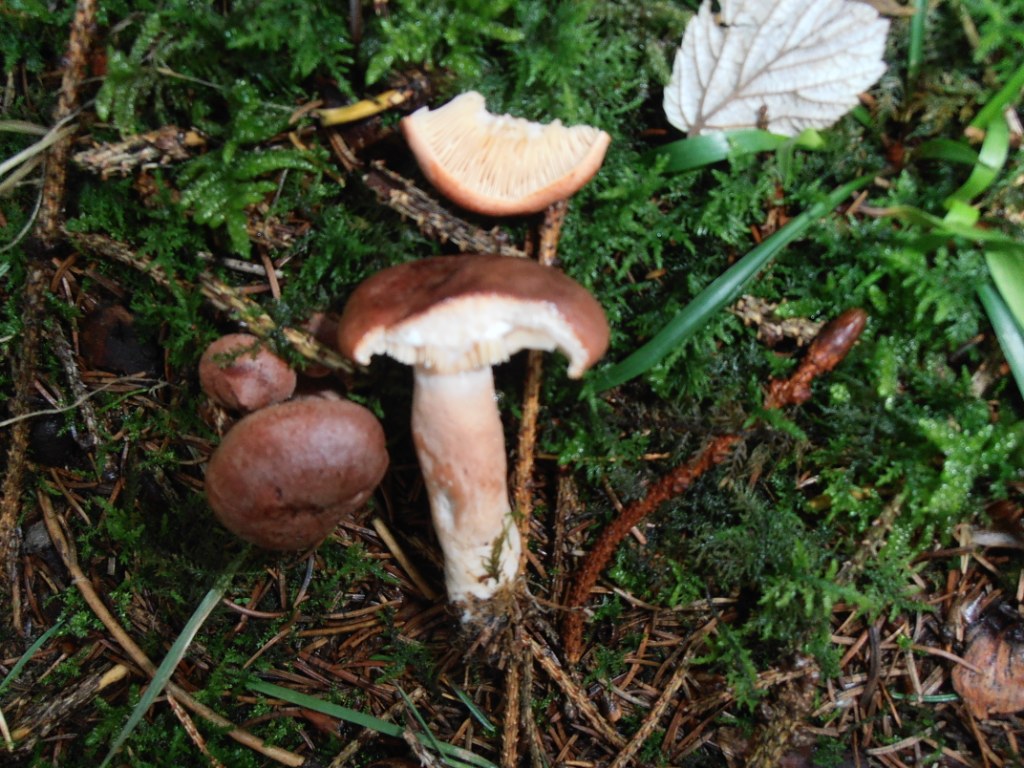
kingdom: Fungi
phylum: Basidiomycota
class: Agaricomycetes
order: Russulales
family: Russulaceae
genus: Lactarius
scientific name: Lactarius rufus
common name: rødbrun mælkehat
